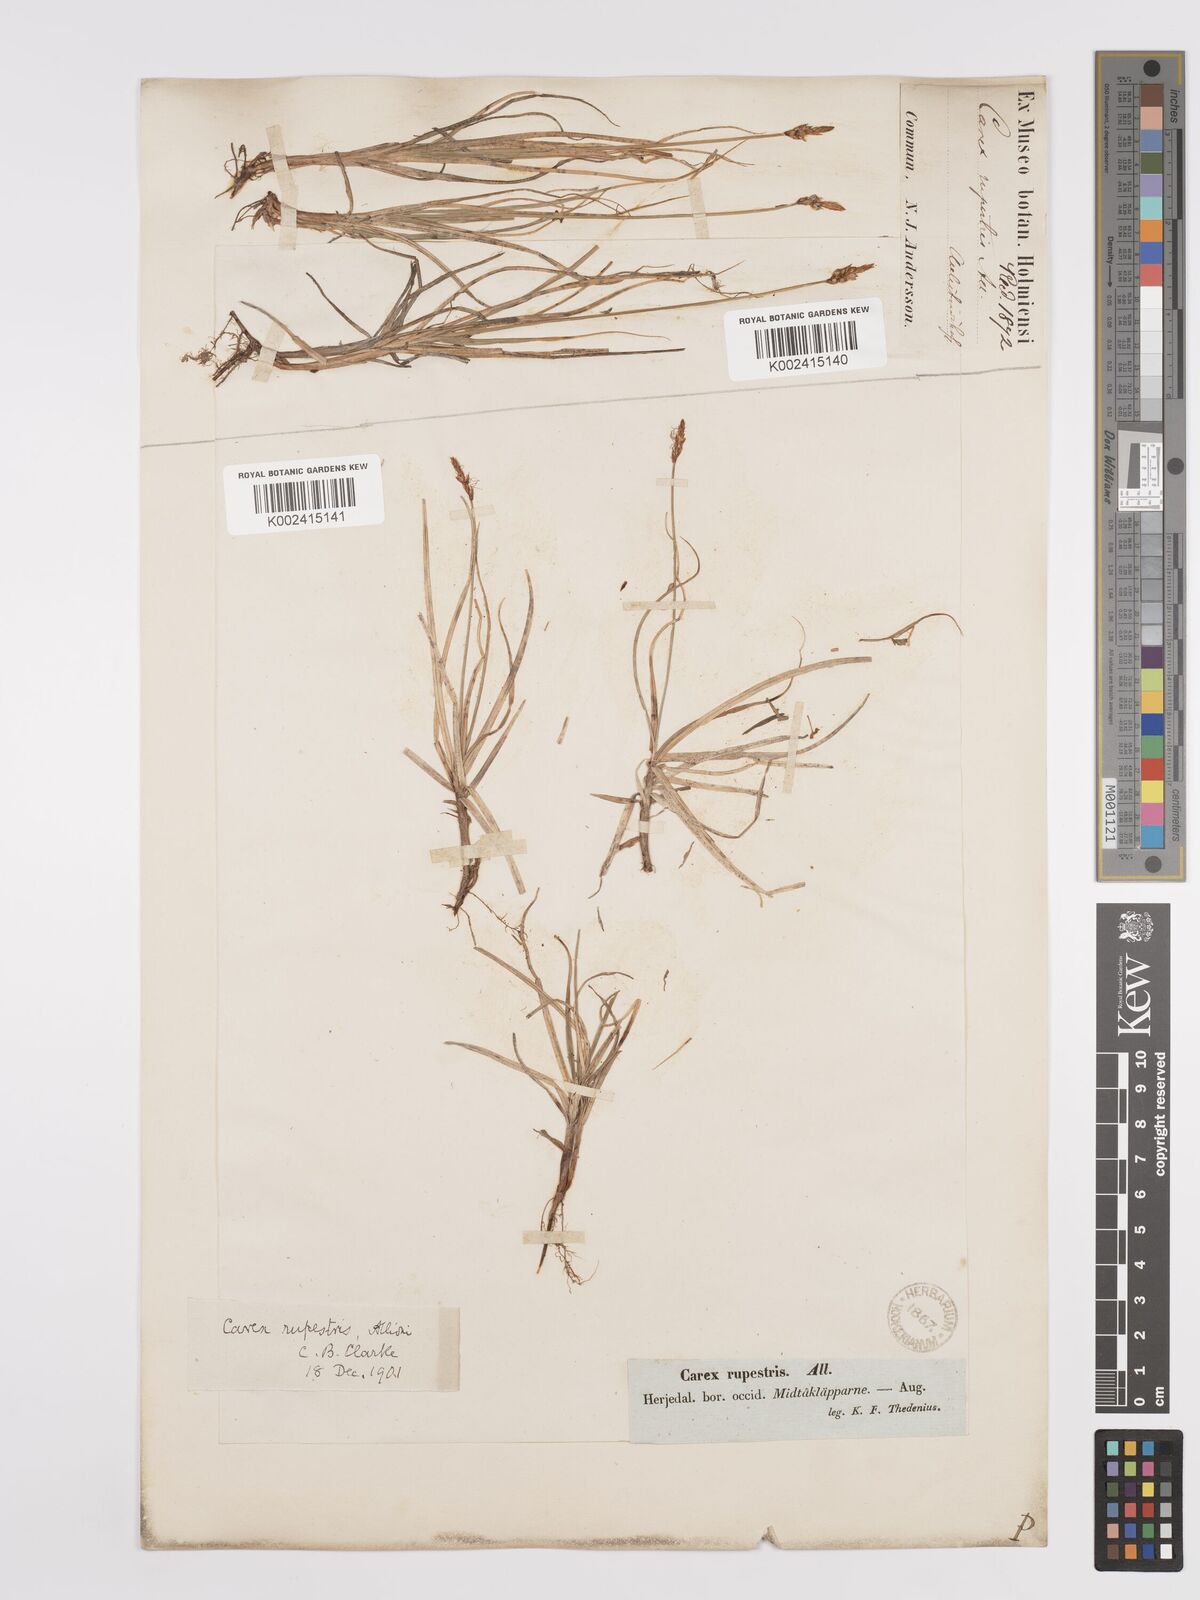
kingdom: Plantae
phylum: Tracheophyta
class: Liliopsida
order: Poales
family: Cyperaceae
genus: Carex
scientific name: Carex rupestris
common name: Rock sedge
